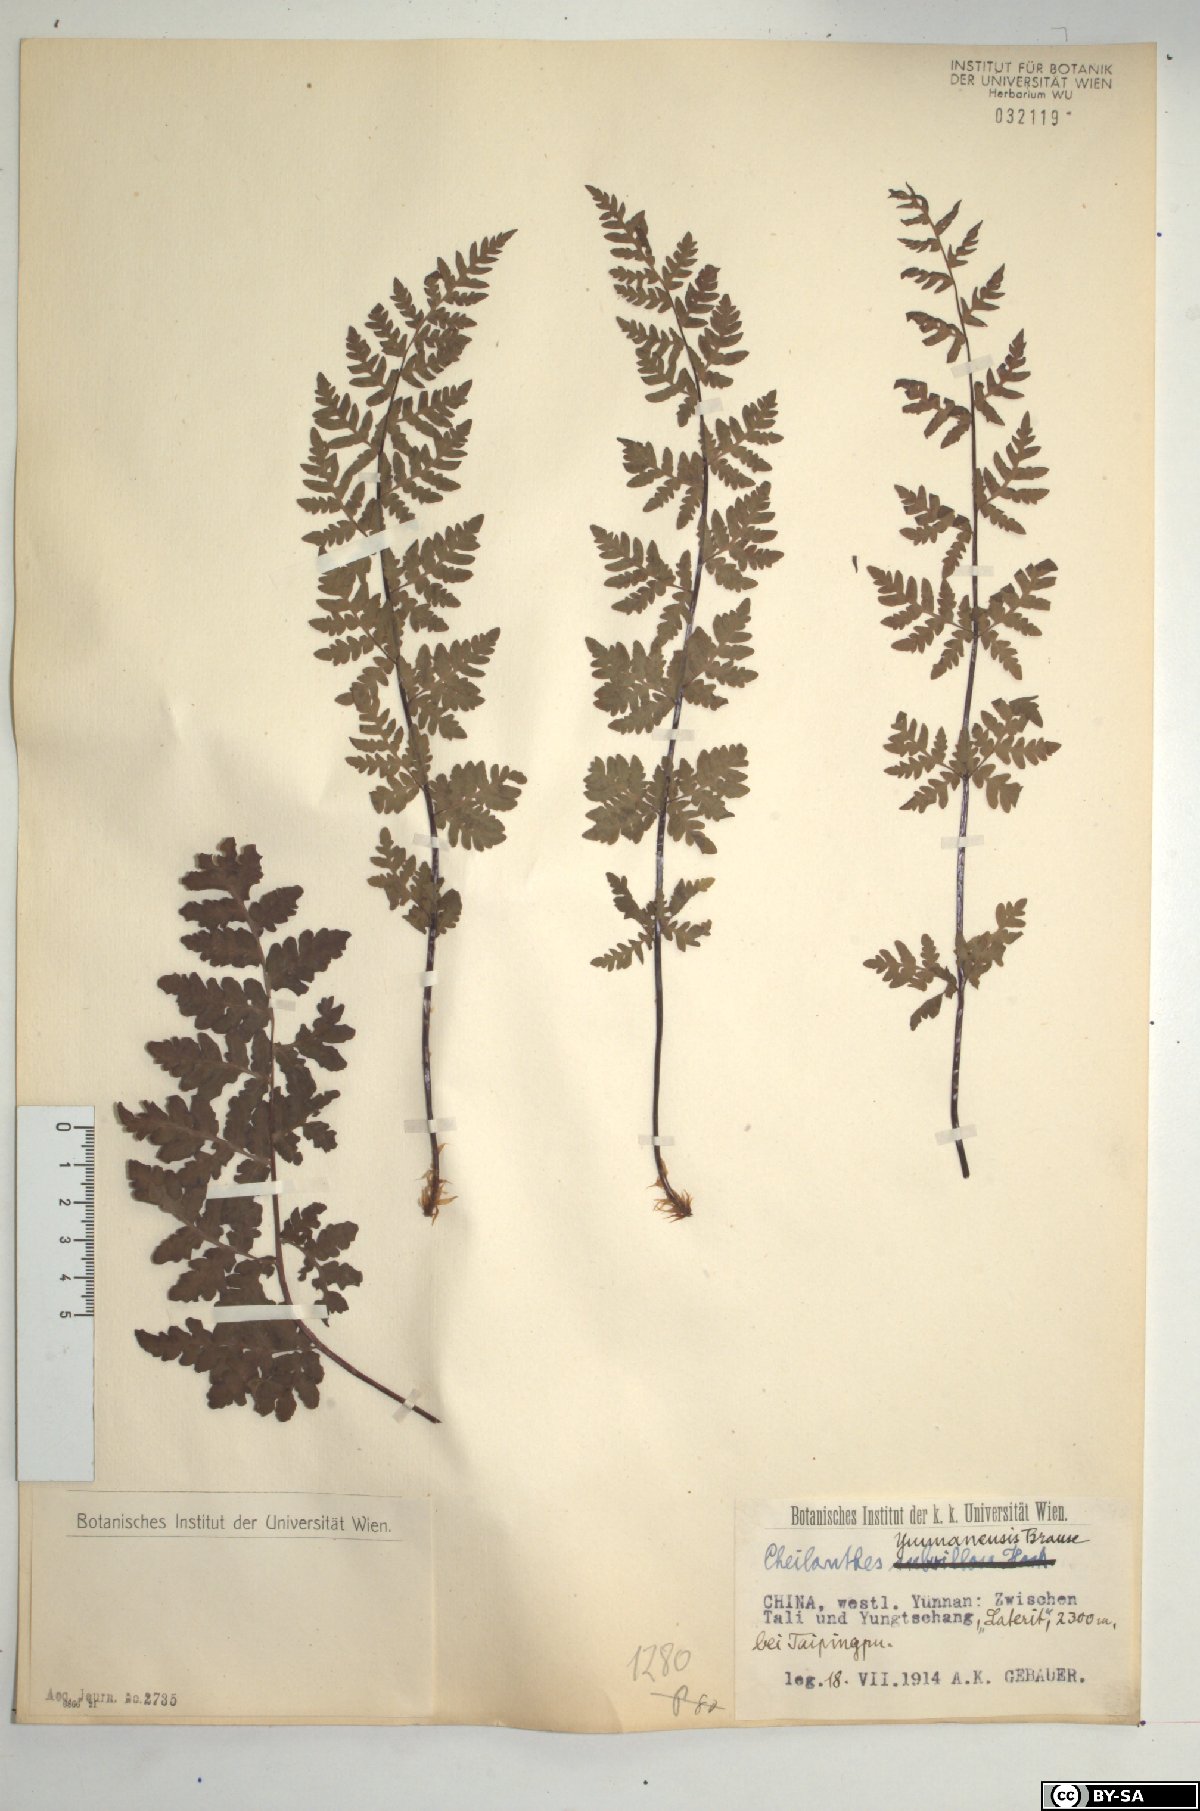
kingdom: Plantae
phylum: Tracheophyta
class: Polypodiopsida
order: Polypodiales
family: Pteridaceae
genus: Oeosporangium
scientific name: Oeosporangium subvillosum
